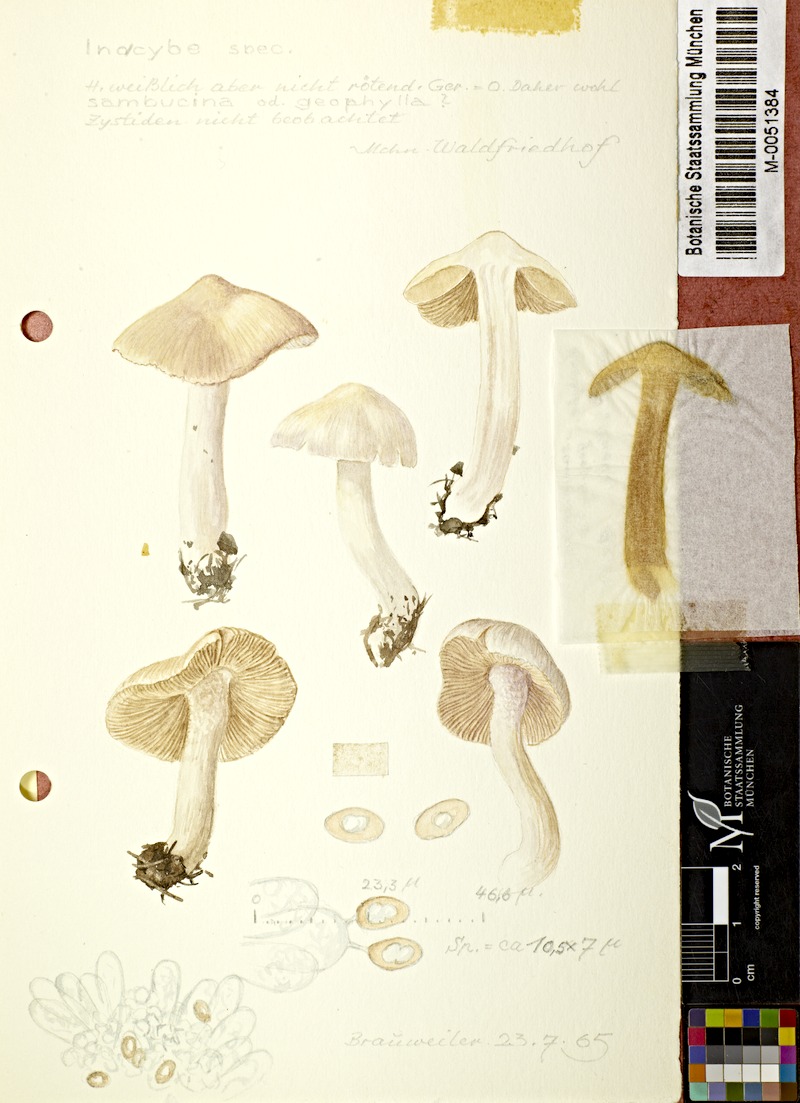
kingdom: Fungi
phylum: Basidiomycota
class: Agaricomycetes
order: Agaricales
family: Inocybaceae
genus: Inocybe
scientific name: Inocybe
